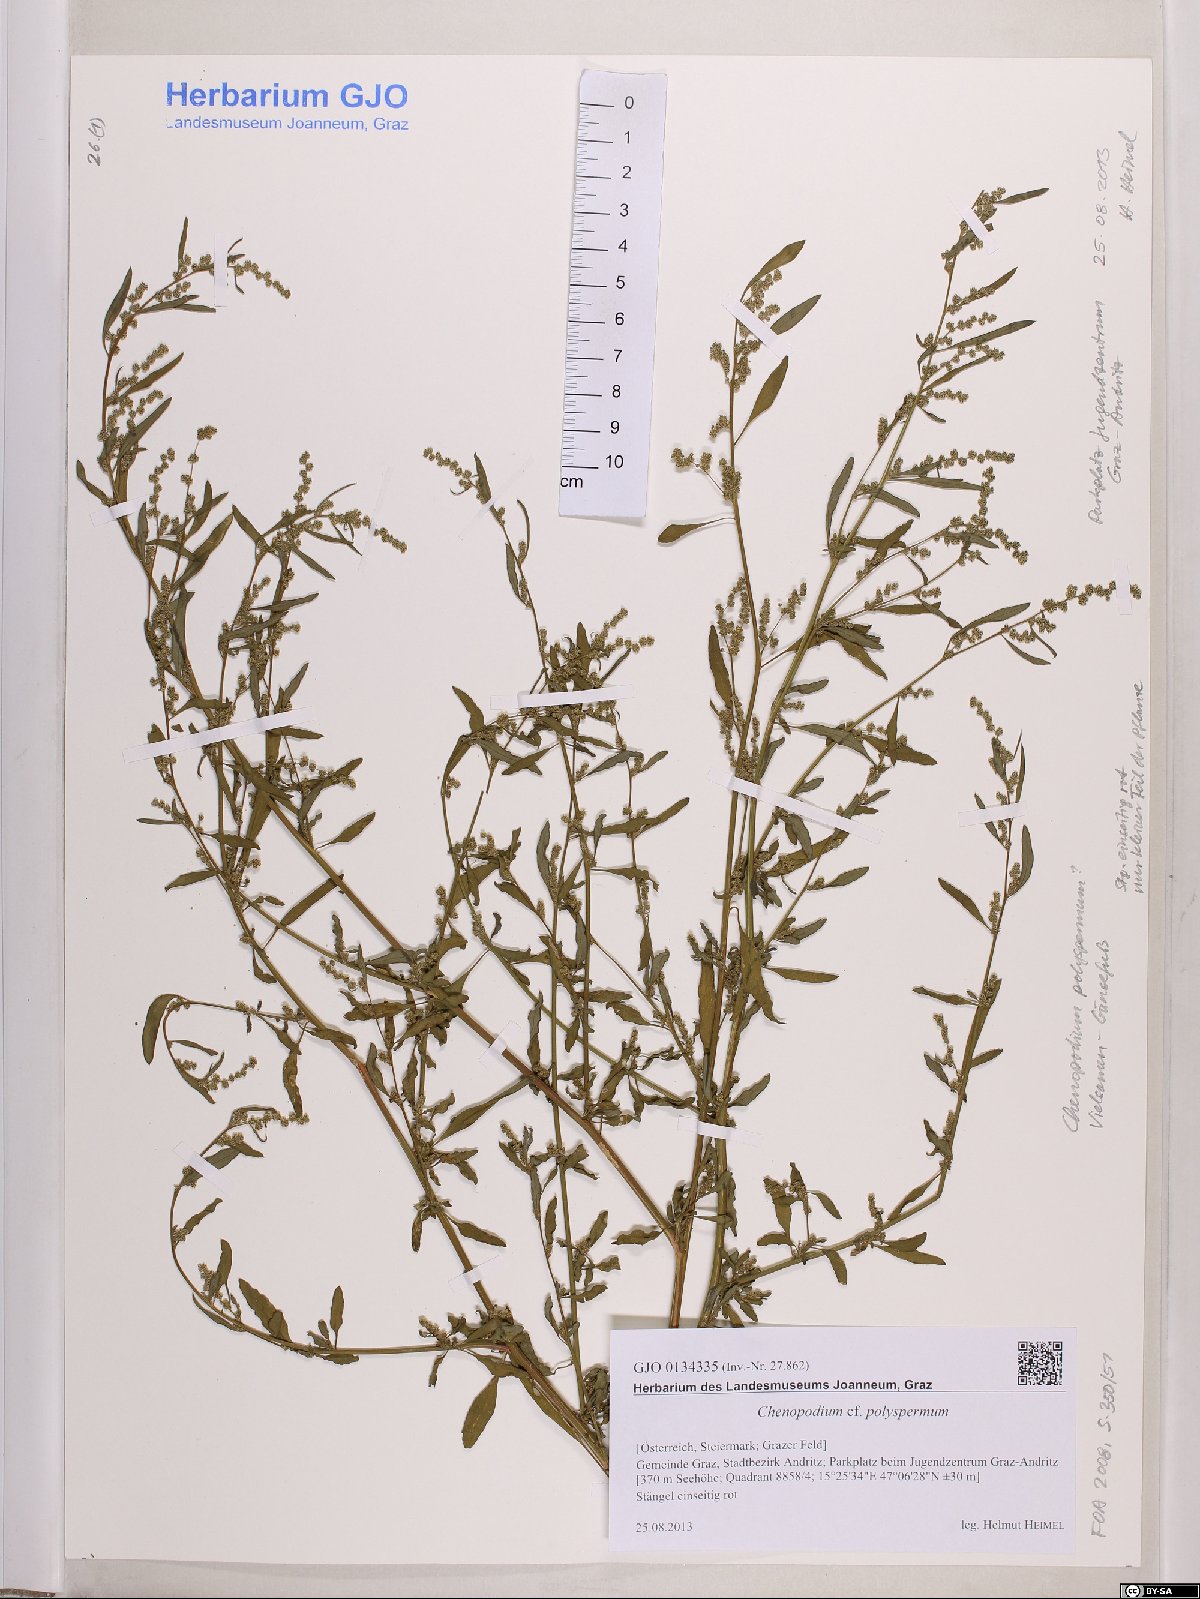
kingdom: Plantae
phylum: Tracheophyta
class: Magnoliopsida
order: Caryophyllales
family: Amaranthaceae
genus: Lipandra
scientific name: Lipandra polysperma
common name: Many-seed goosefoot
